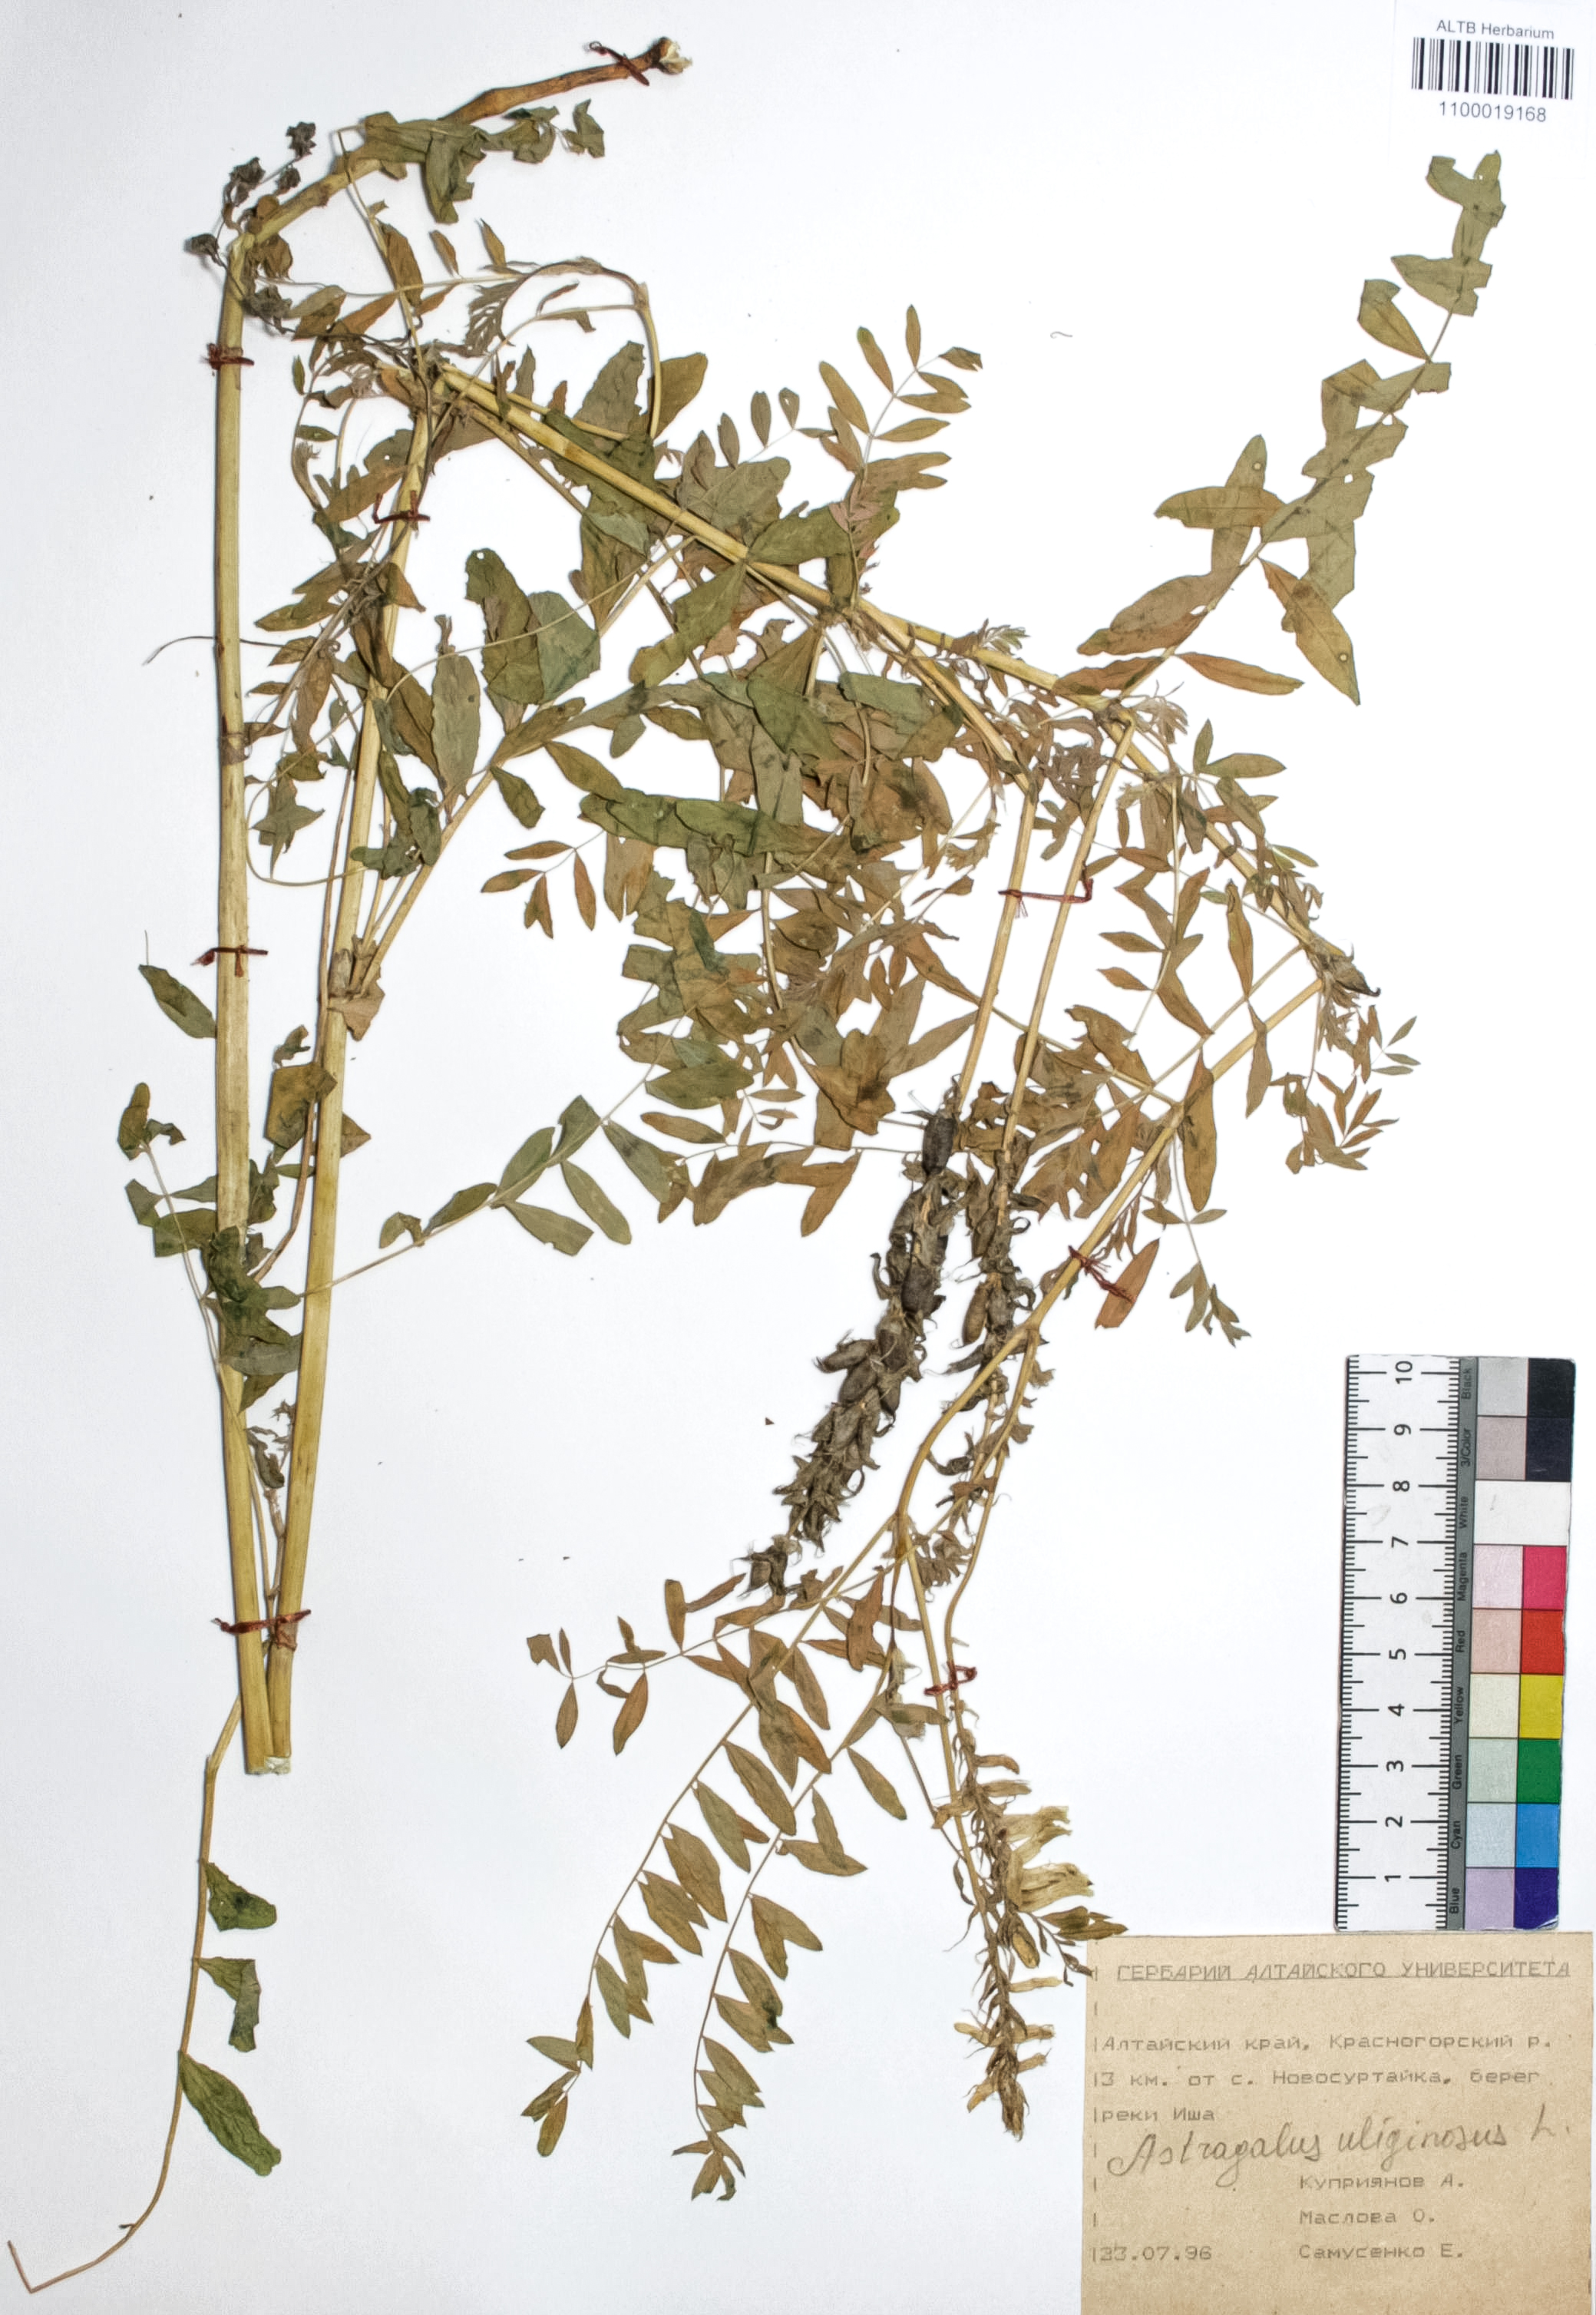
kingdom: Plantae
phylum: Tracheophyta
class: Magnoliopsida
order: Fabales
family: Fabaceae
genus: Astragalus
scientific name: Astragalus uliginosus
